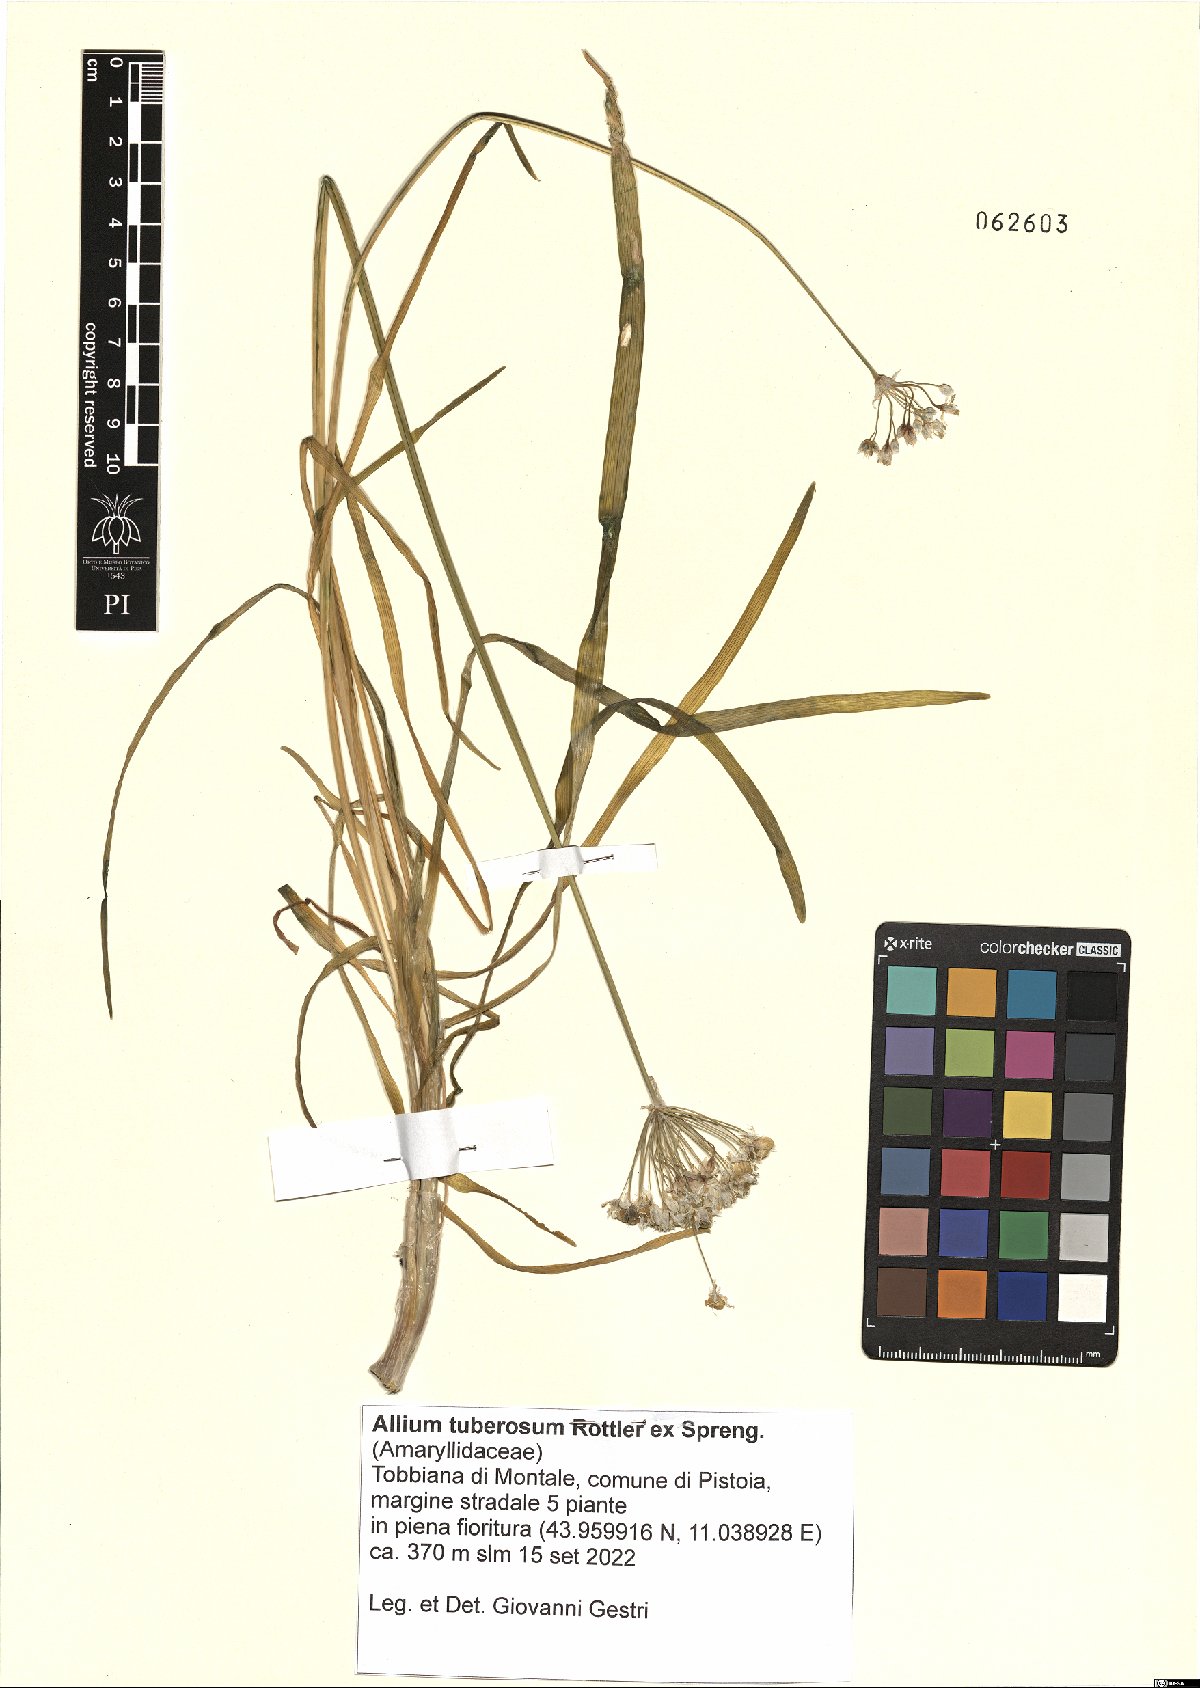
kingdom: Plantae
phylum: Tracheophyta
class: Liliopsida
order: Asparagales
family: Amaryllidaceae
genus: Allium
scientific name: Allium tuberosum
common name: Chinese chives
